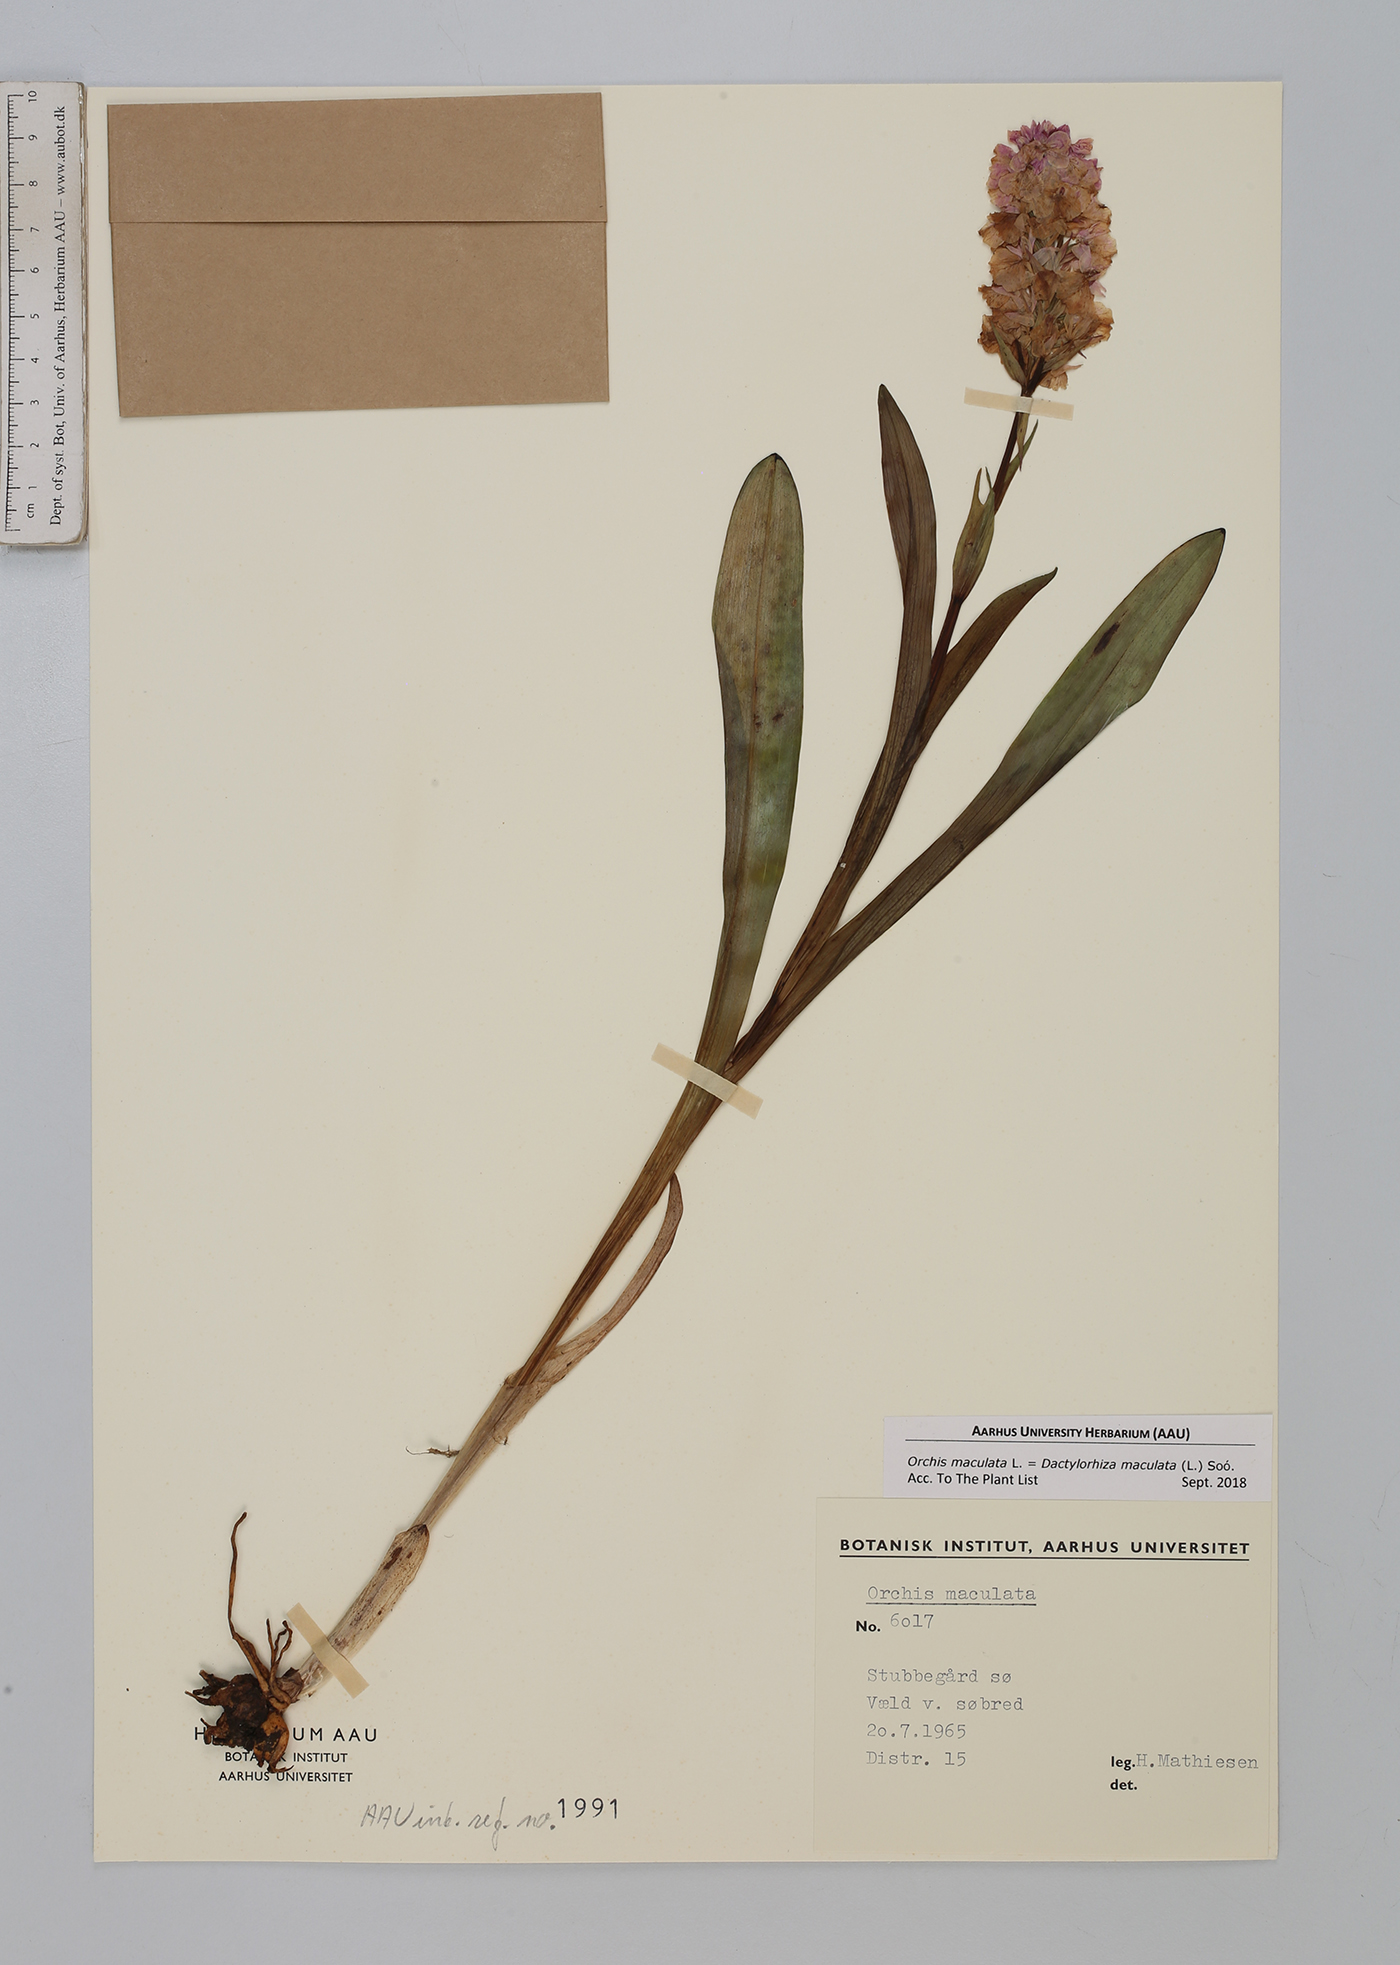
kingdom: Plantae
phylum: Tracheophyta
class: Liliopsida
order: Asparagales
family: Orchidaceae
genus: Dactylorhiza
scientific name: Dactylorhiza maculata
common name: Heath spotted-orchid
